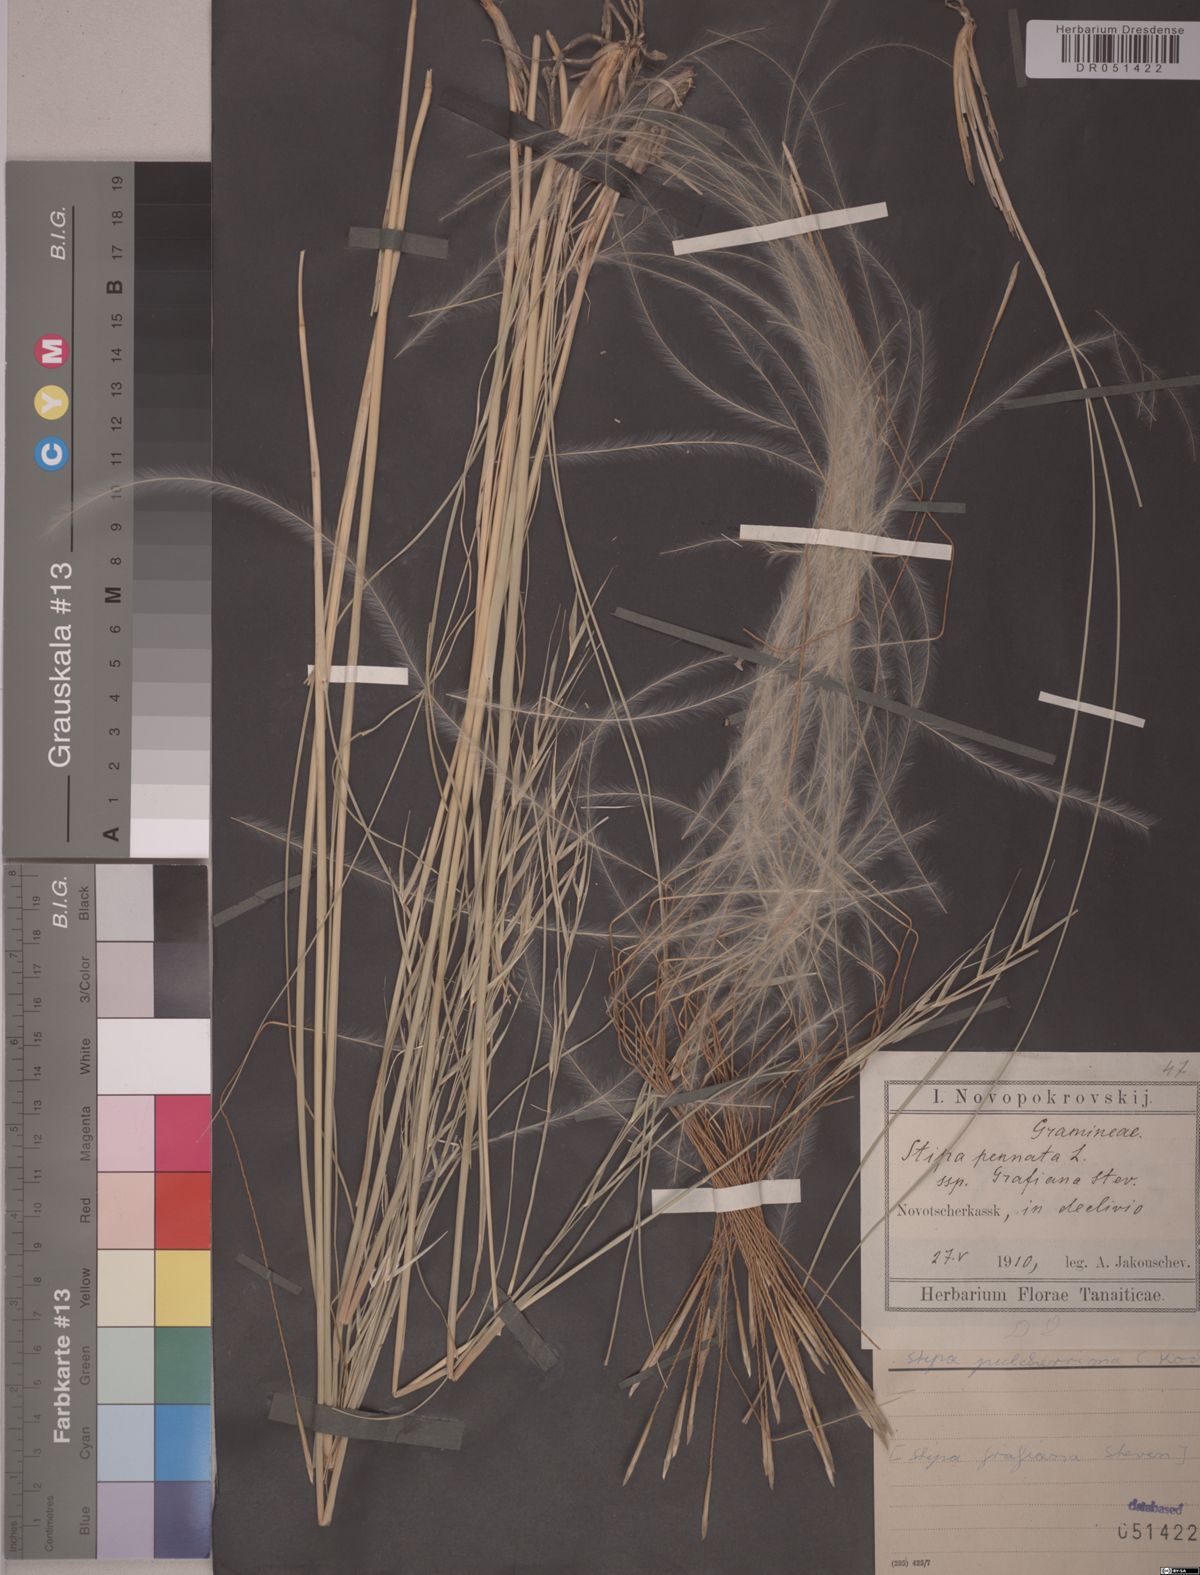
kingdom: Plantae
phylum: Tracheophyta
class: Liliopsida
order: Poales
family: Poaceae
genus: Stipa
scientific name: Stipa pulcherrima
